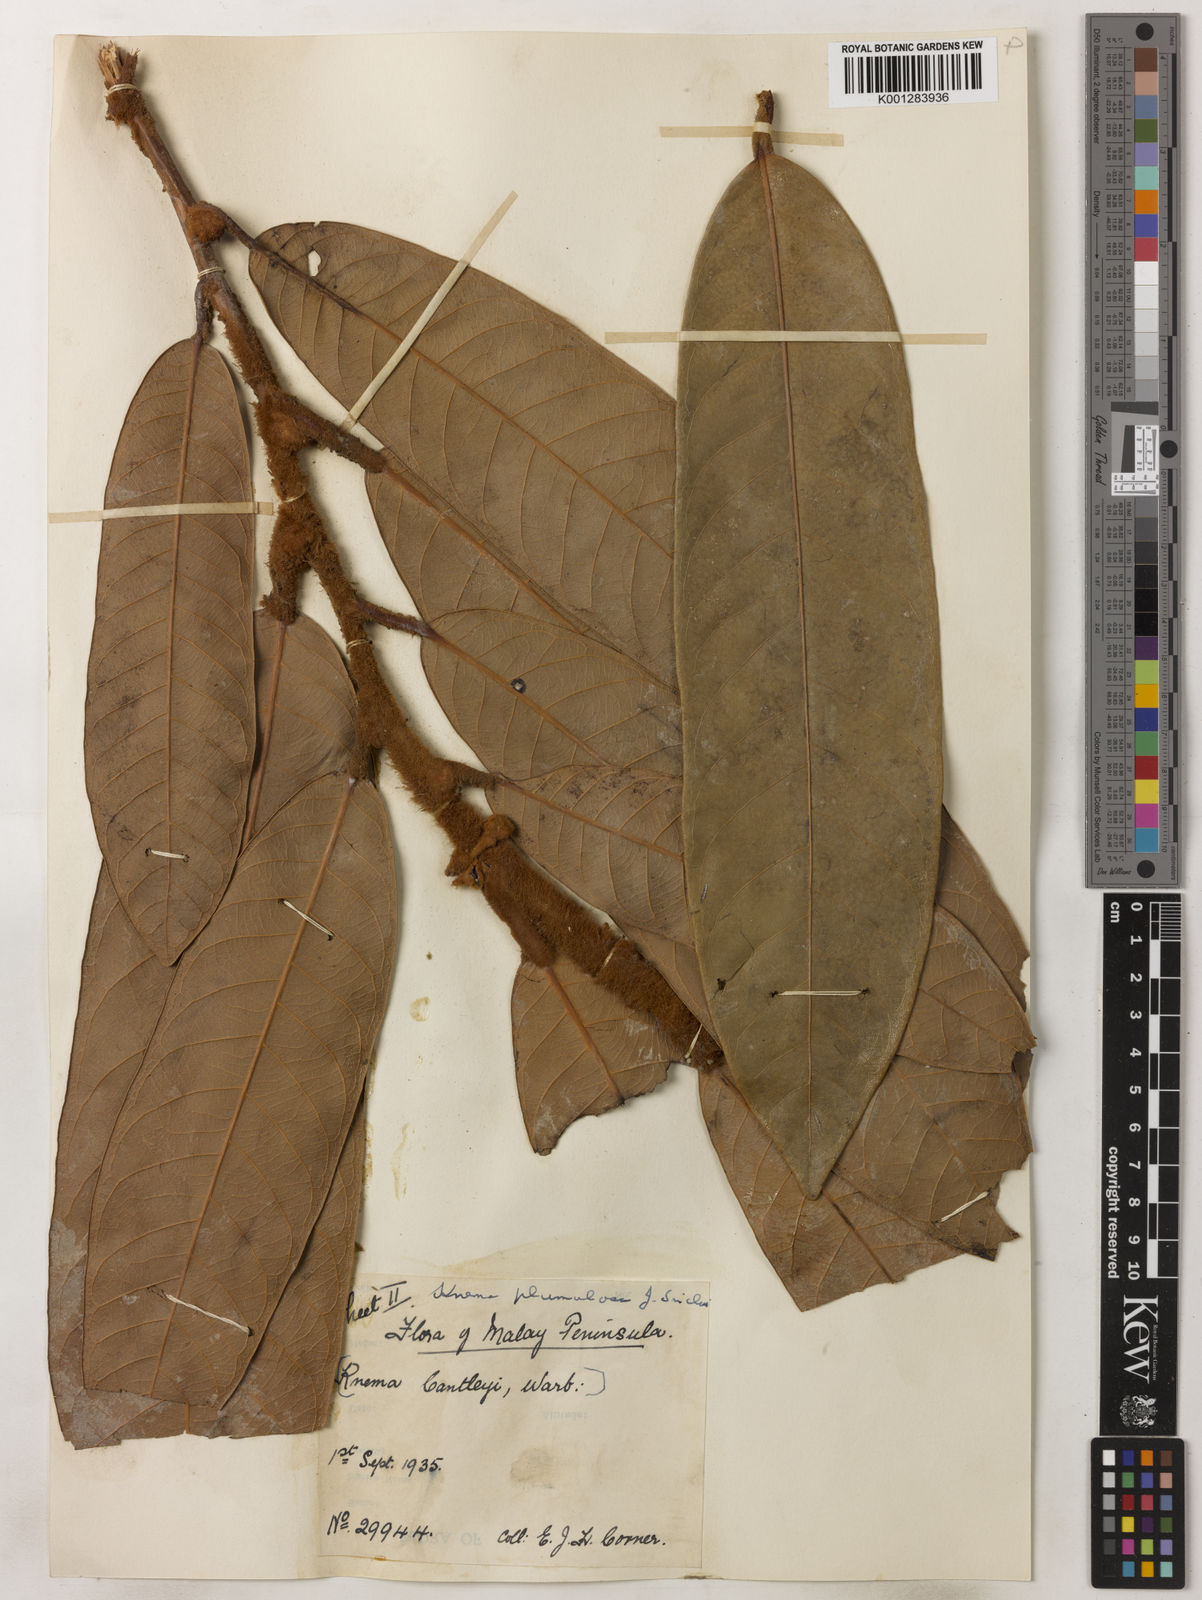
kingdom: Plantae
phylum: Tracheophyta
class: Magnoliopsida
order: Magnoliales
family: Myristicaceae
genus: Knema
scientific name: Knema plumulosa
